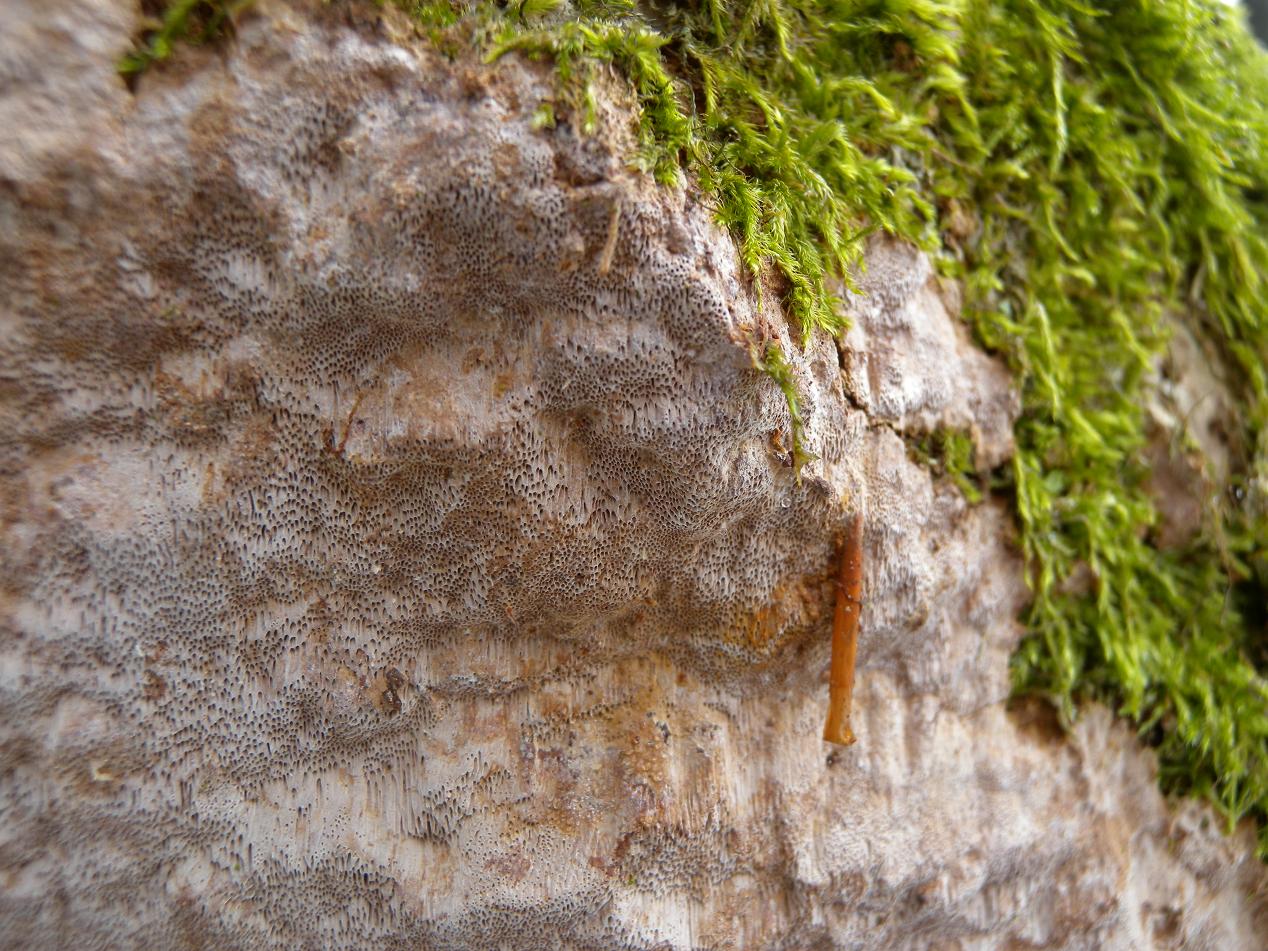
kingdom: Fungi
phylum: Basidiomycota
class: Agaricomycetes
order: Hymenochaetales
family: Hymenochaetaceae
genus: Fuscoporia
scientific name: Fuscoporia ferrea
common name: skorpe-ildporesvamp
